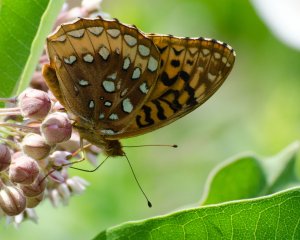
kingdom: Animalia
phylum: Arthropoda
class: Insecta
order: Lepidoptera
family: Nymphalidae
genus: Speyeria
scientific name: Speyeria cybele
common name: Great Spangled Fritillary
